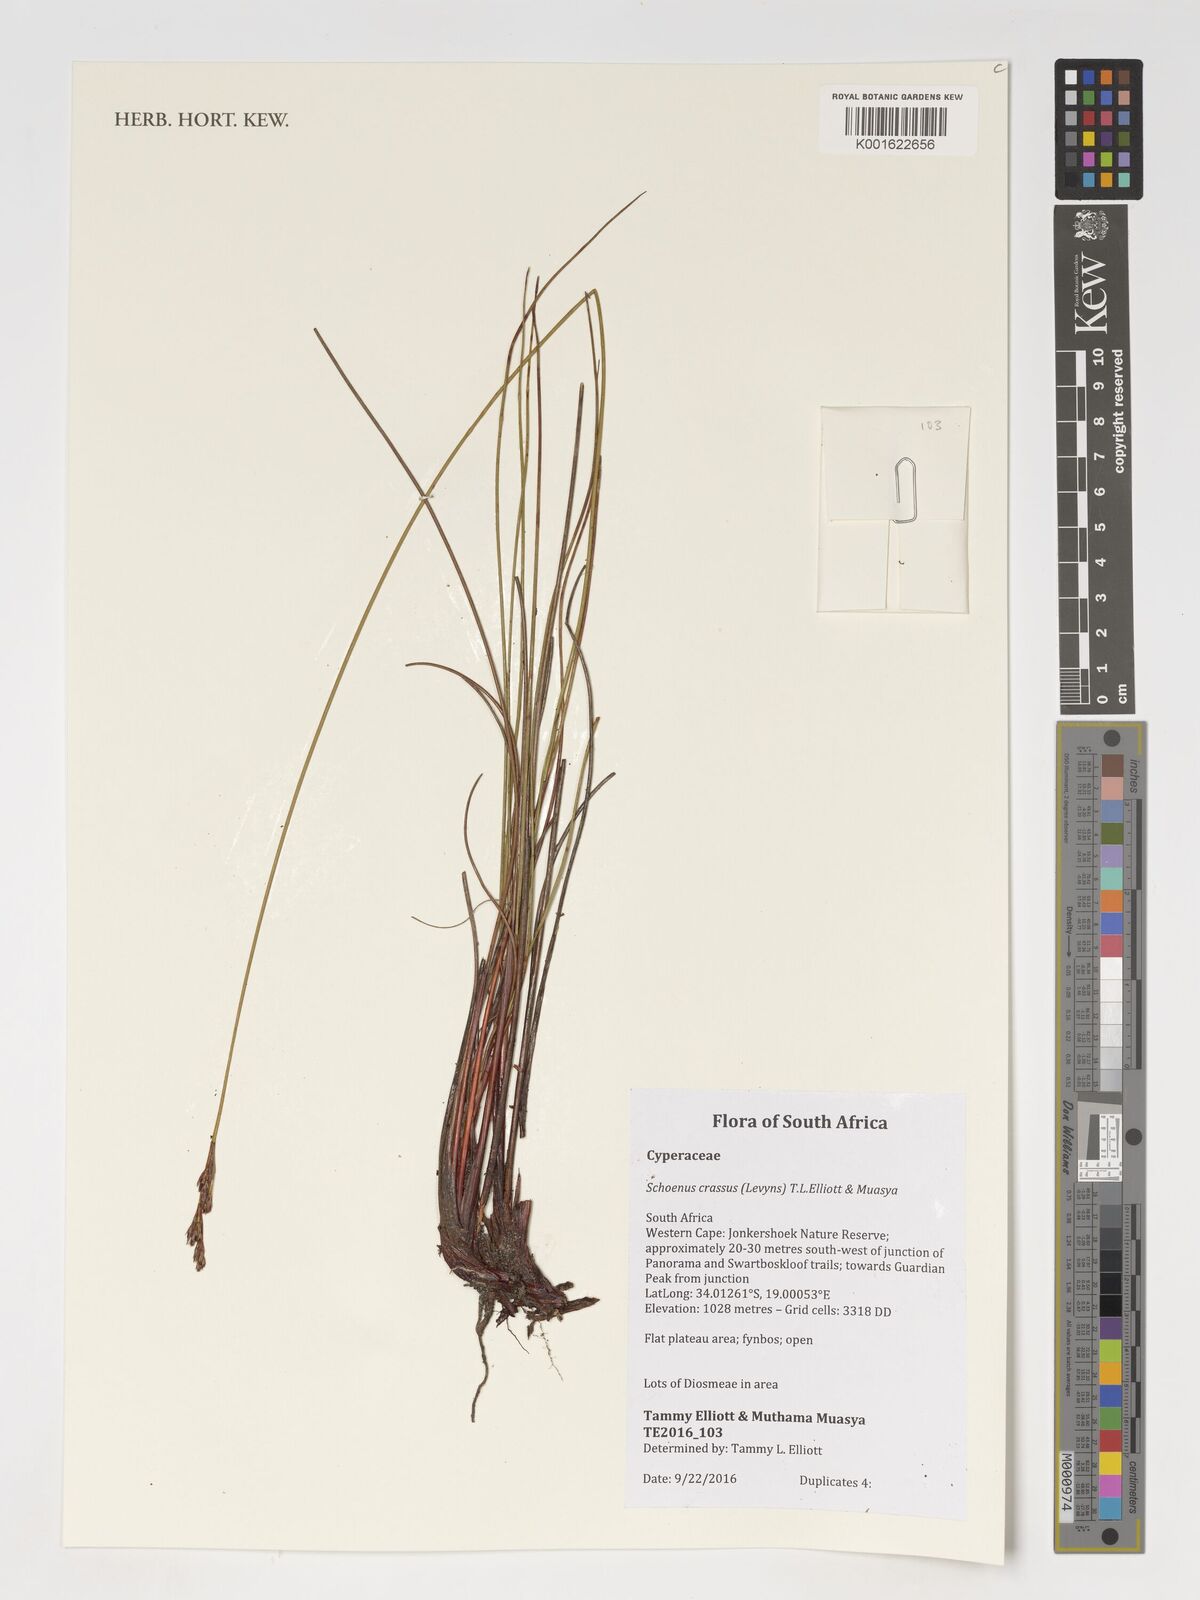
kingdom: Plantae
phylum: Tracheophyta
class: Liliopsida
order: Poales
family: Cyperaceae
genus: Schoenus
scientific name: Schoenus crassus
